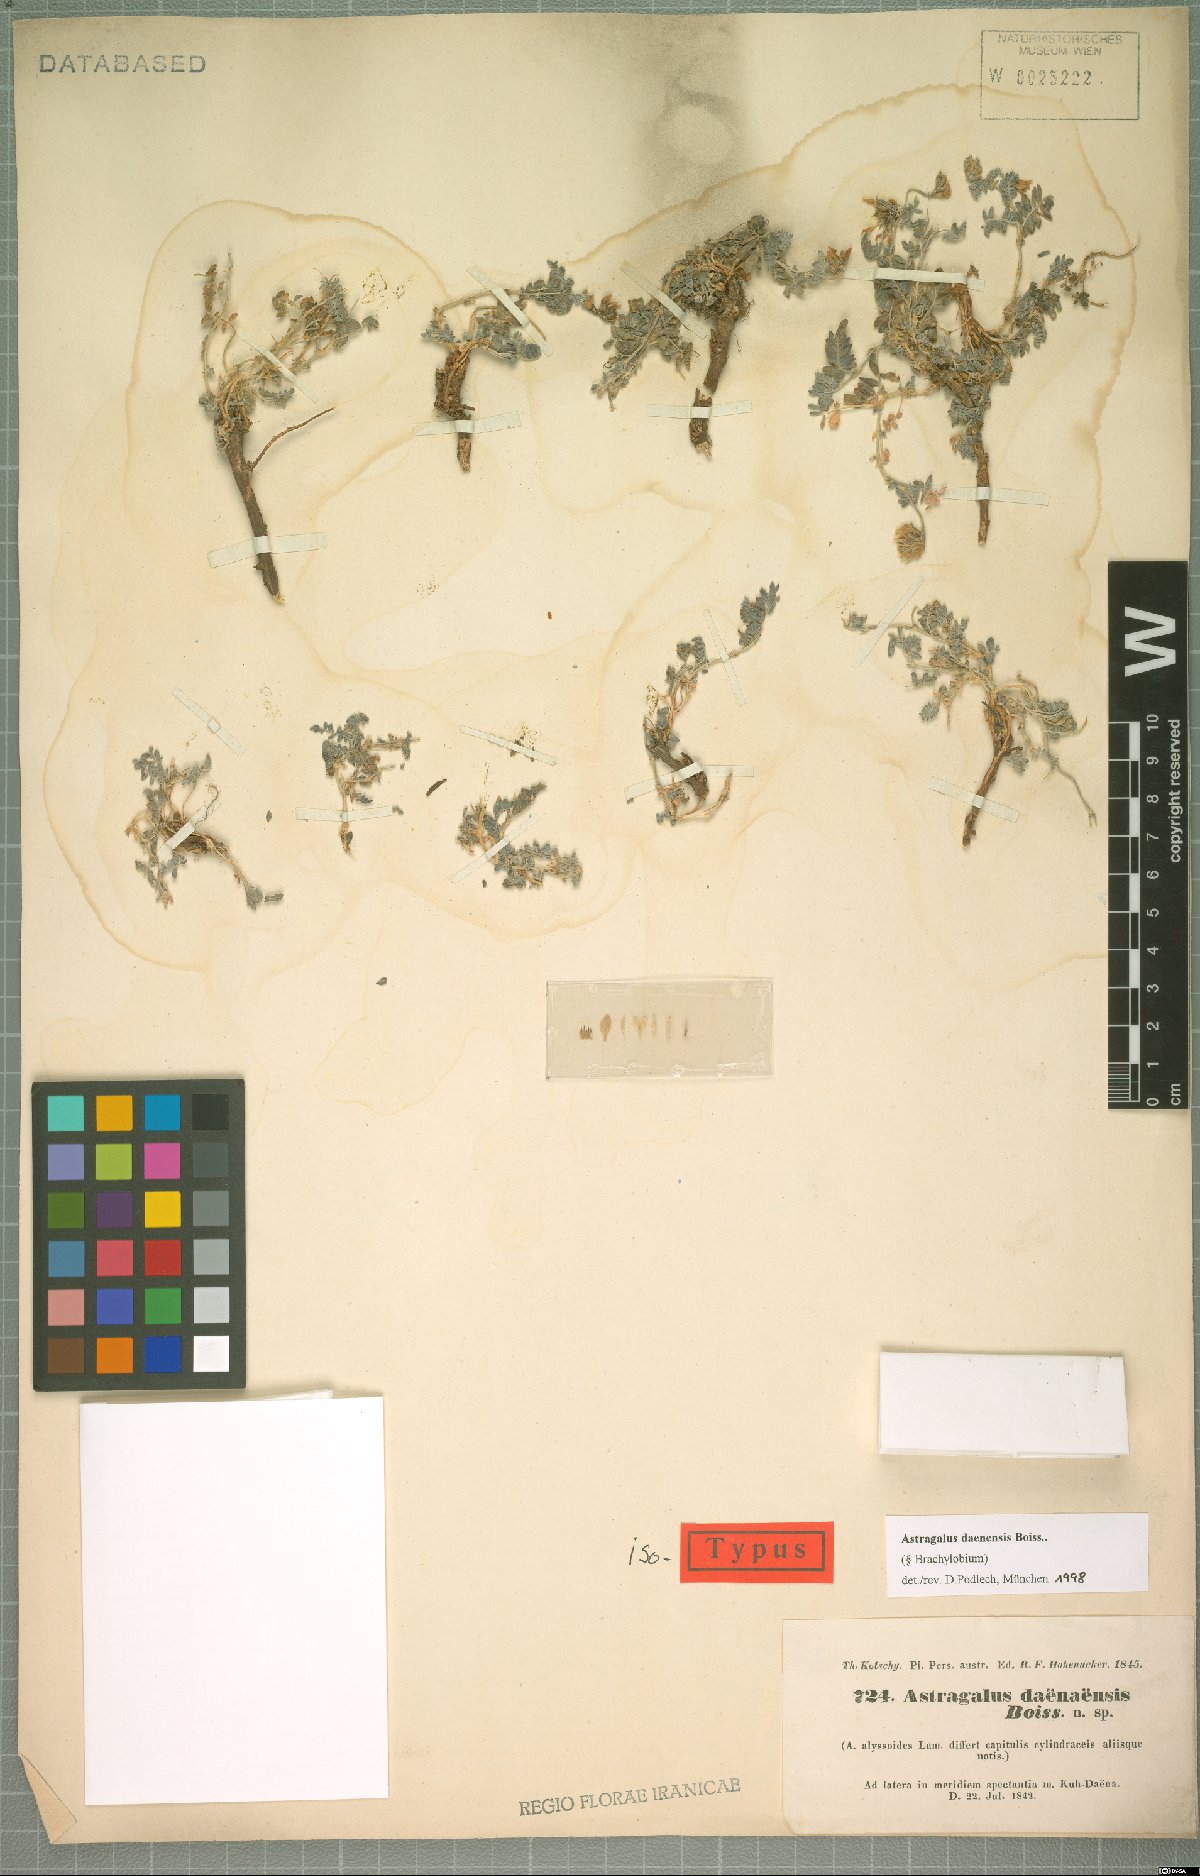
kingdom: Plantae
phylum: Tracheophyta
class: Magnoliopsida
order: Fabales
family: Fabaceae
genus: Astragalus
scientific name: Astragalus daenensis
